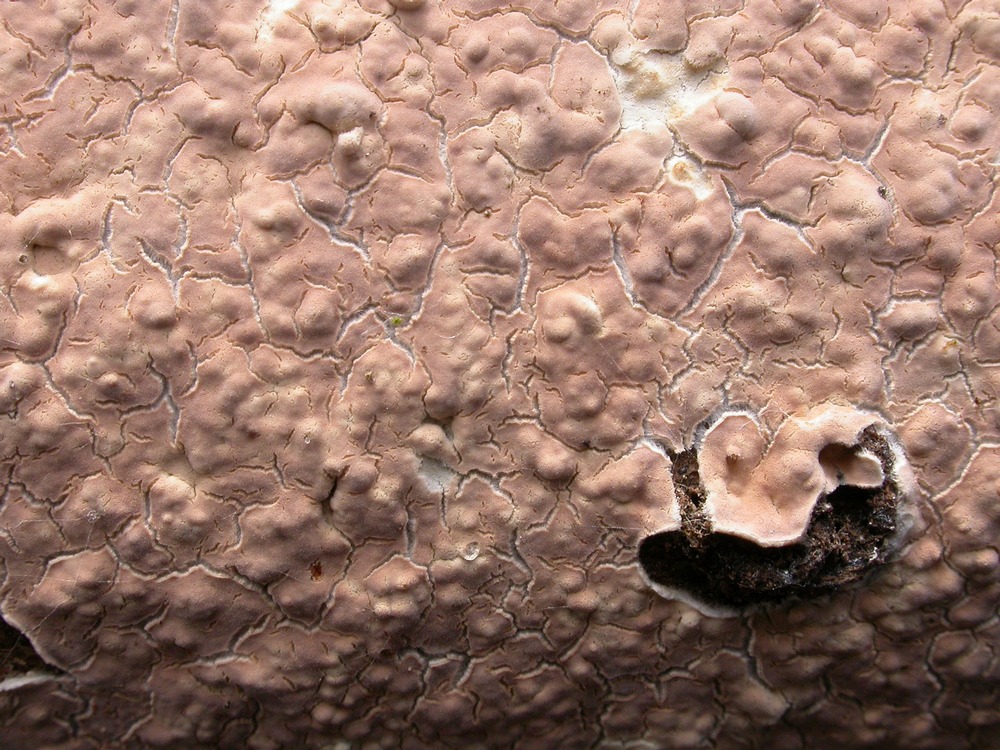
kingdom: Fungi
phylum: Basidiomycota
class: Agaricomycetes
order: Agaricales
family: Physalacriaceae
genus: Cylindrobasidium
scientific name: Cylindrobasidium evolvens
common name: sprækkehinde
